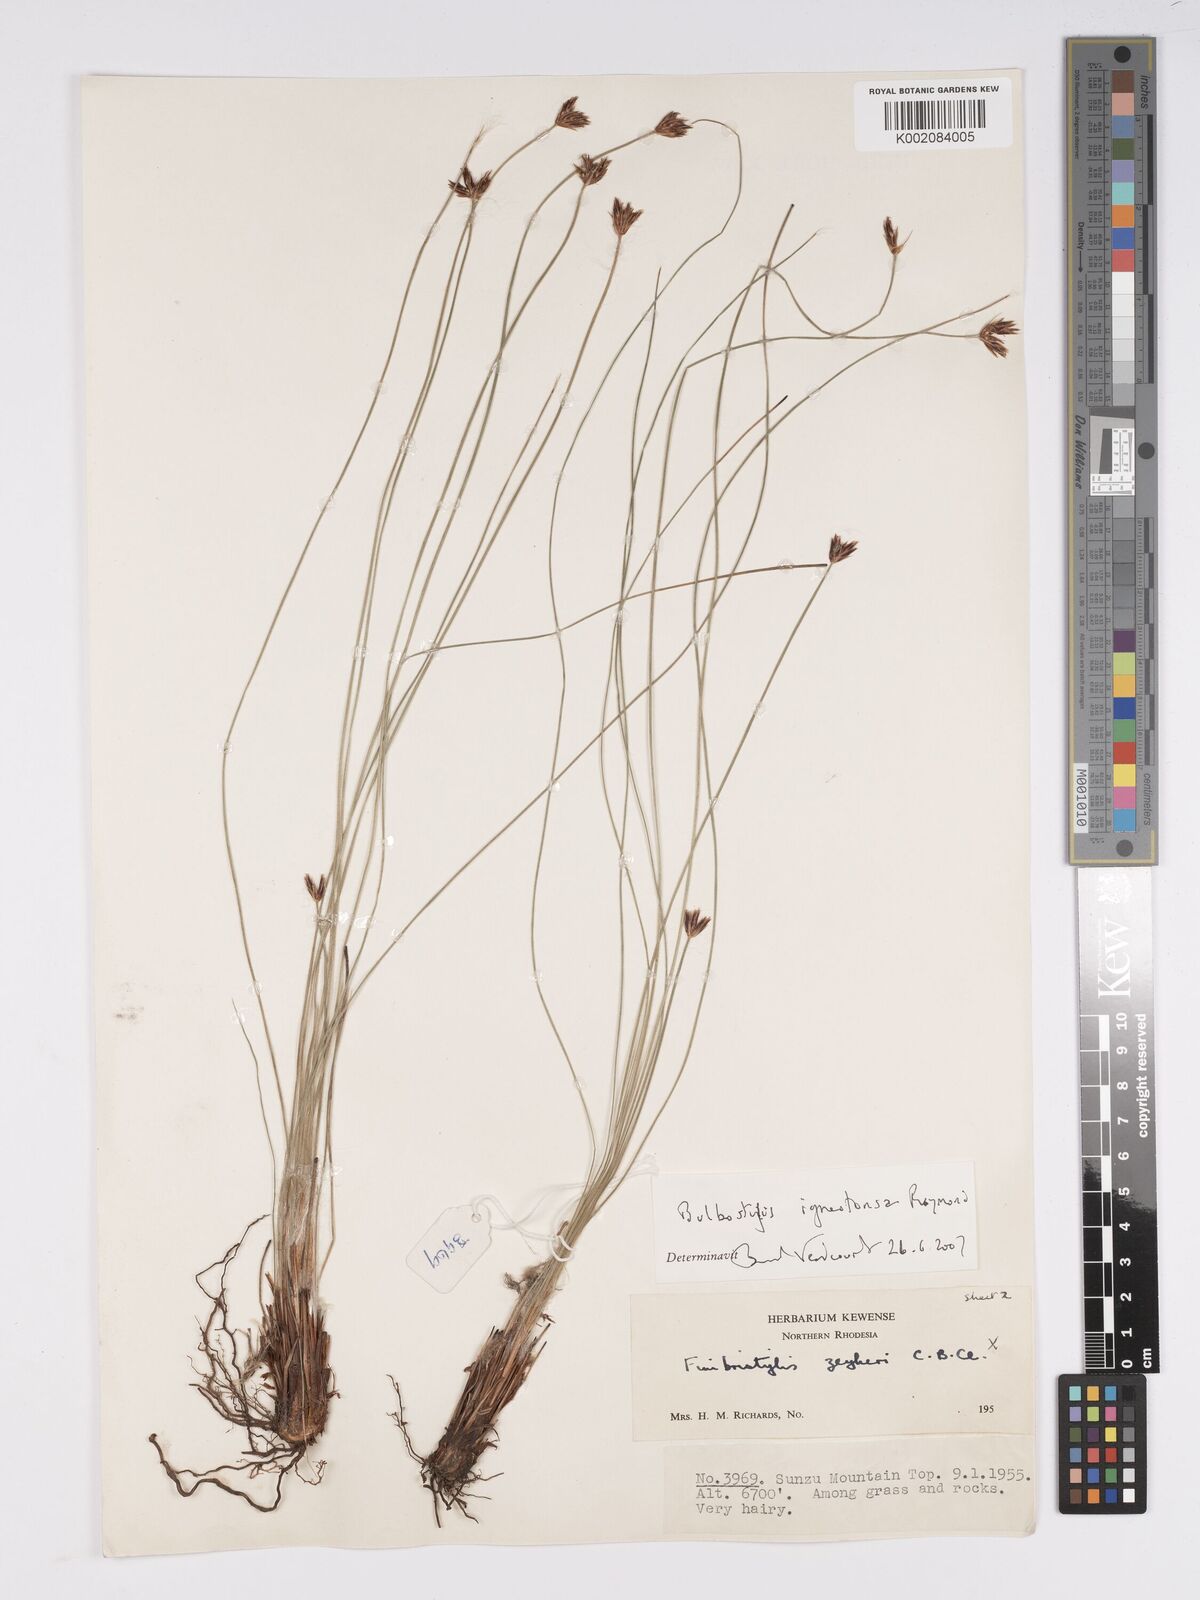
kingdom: Plantae
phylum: Tracheophyta
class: Liliopsida
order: Poales
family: Cyperaceae
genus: Bulbostylis
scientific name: Bulbostylis igneotonsa
